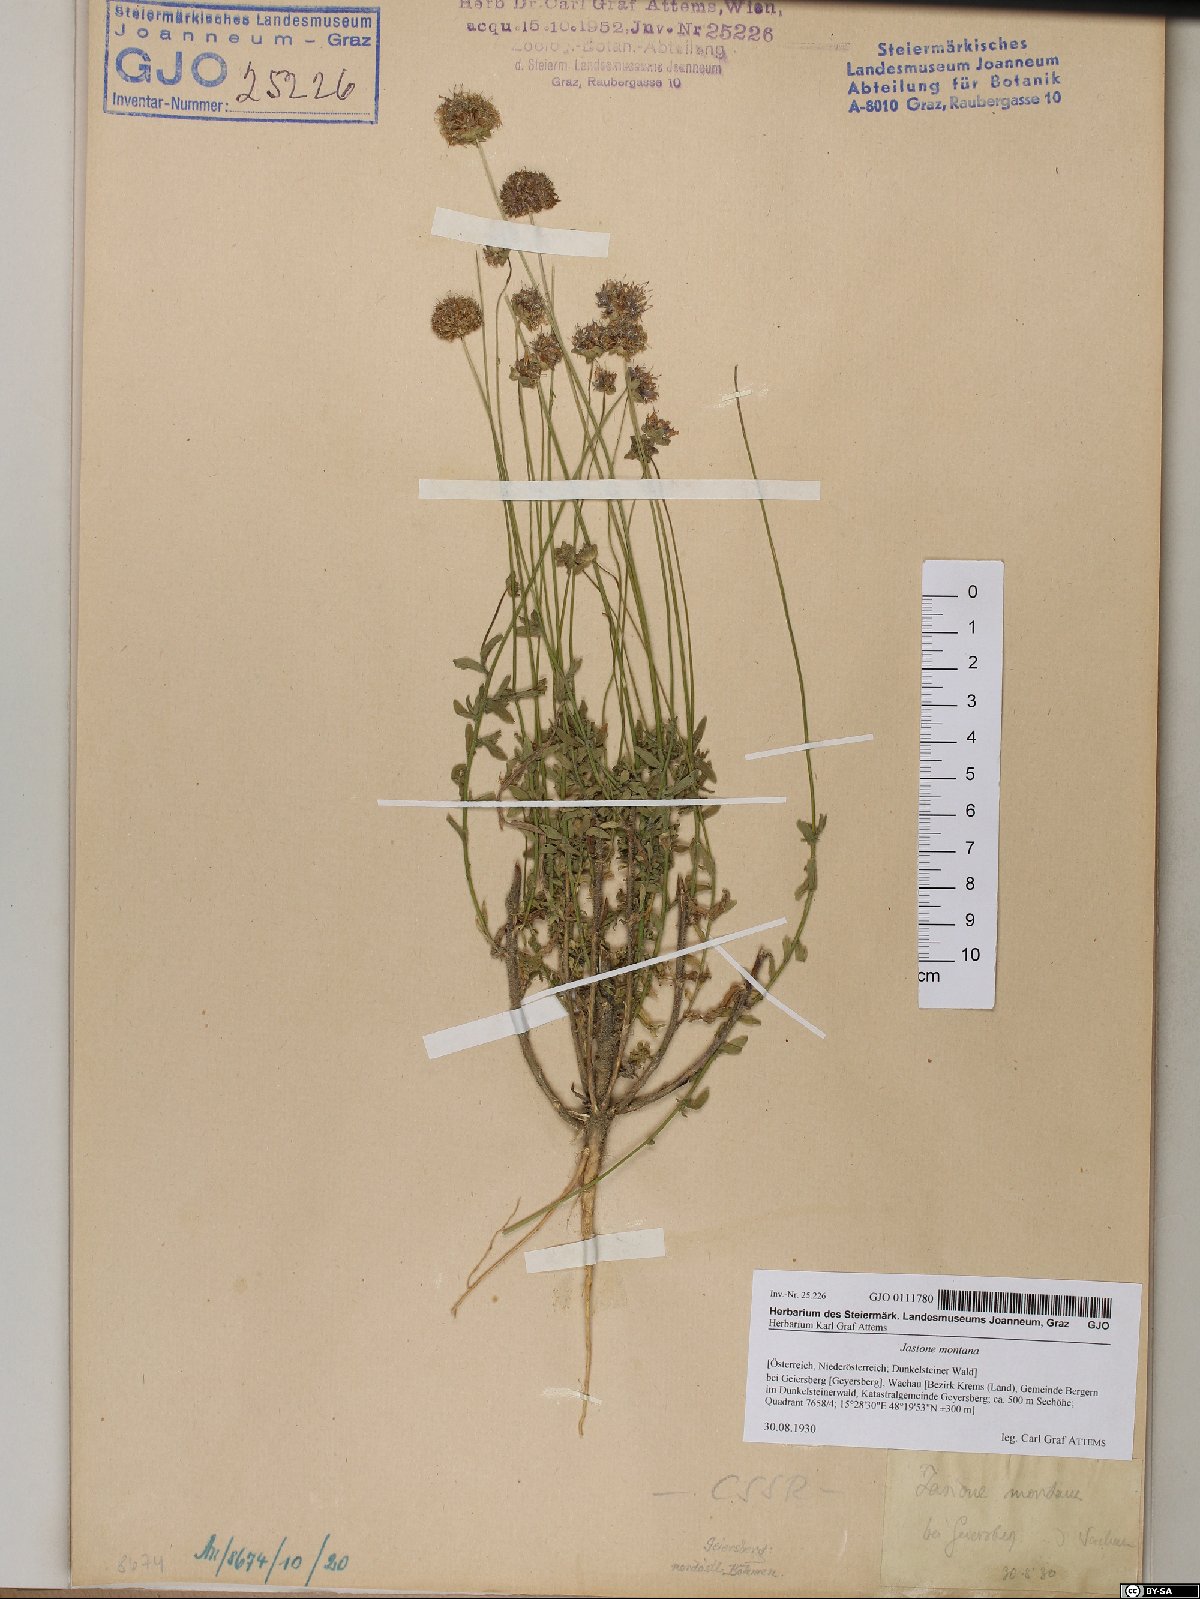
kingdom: Plantae
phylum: Tracheophyta
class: Magnoliopsida
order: Asterales
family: Campanulaceae
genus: Jasione
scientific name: Jasione montana
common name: Sheep's-bit
